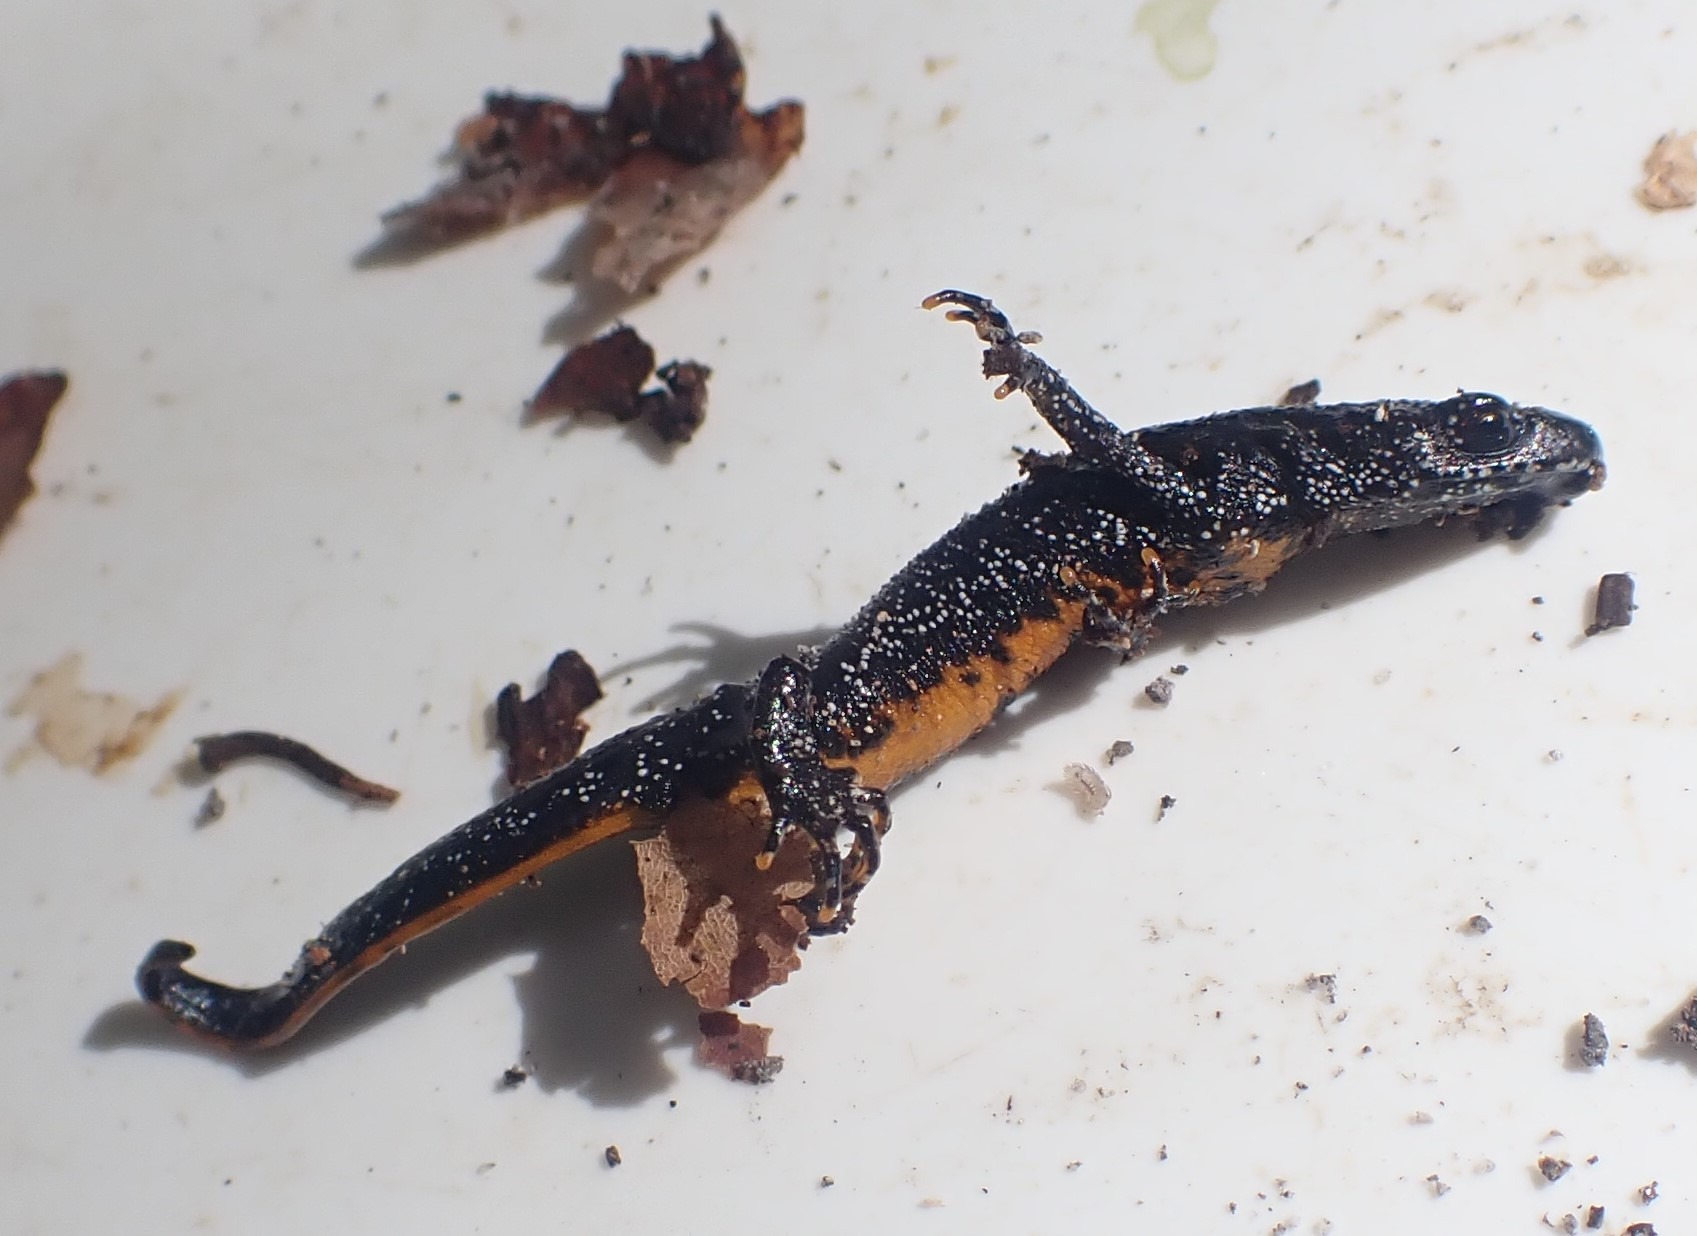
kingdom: Animalia
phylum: Chordata
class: Amphibia
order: Caudata
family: Salamandridae
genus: Triturus
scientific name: Triturus cristatus
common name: Stor vandsalamander
